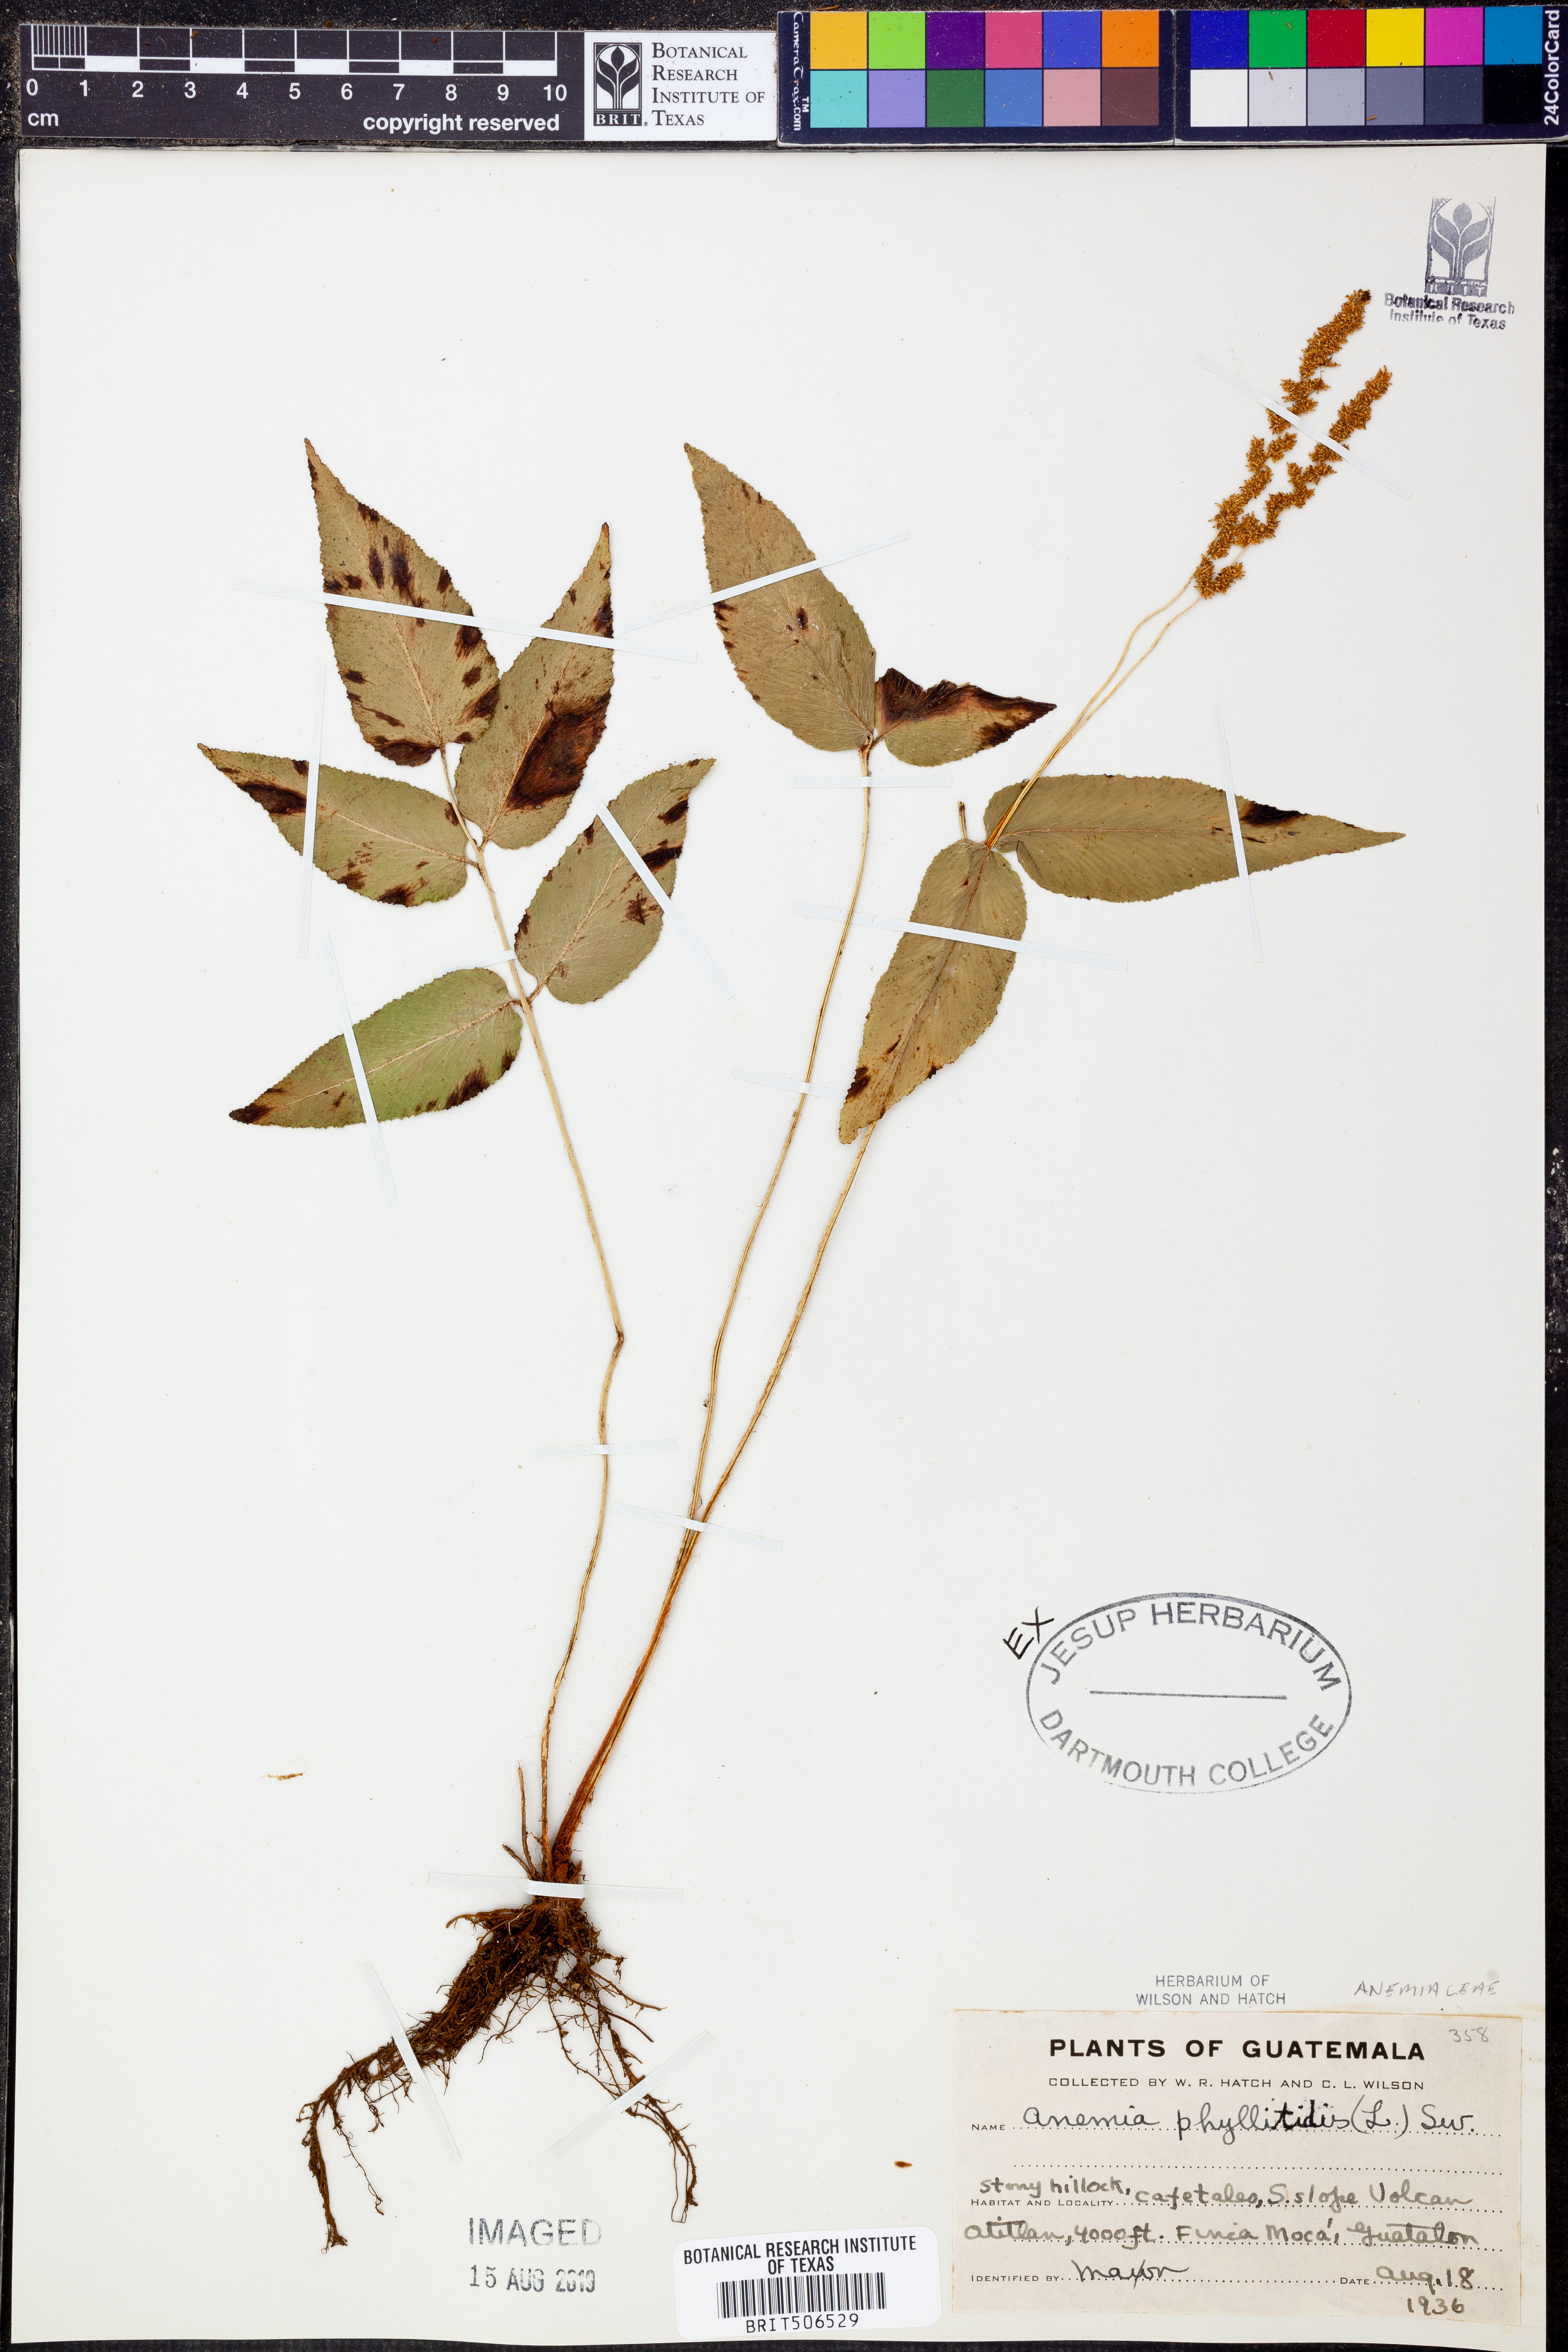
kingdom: Plantae
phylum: Tracheophyta
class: Polypodiopsida
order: Schizaeales
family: Anemiaceae
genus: Anemia
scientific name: Anemia phyllitidis
